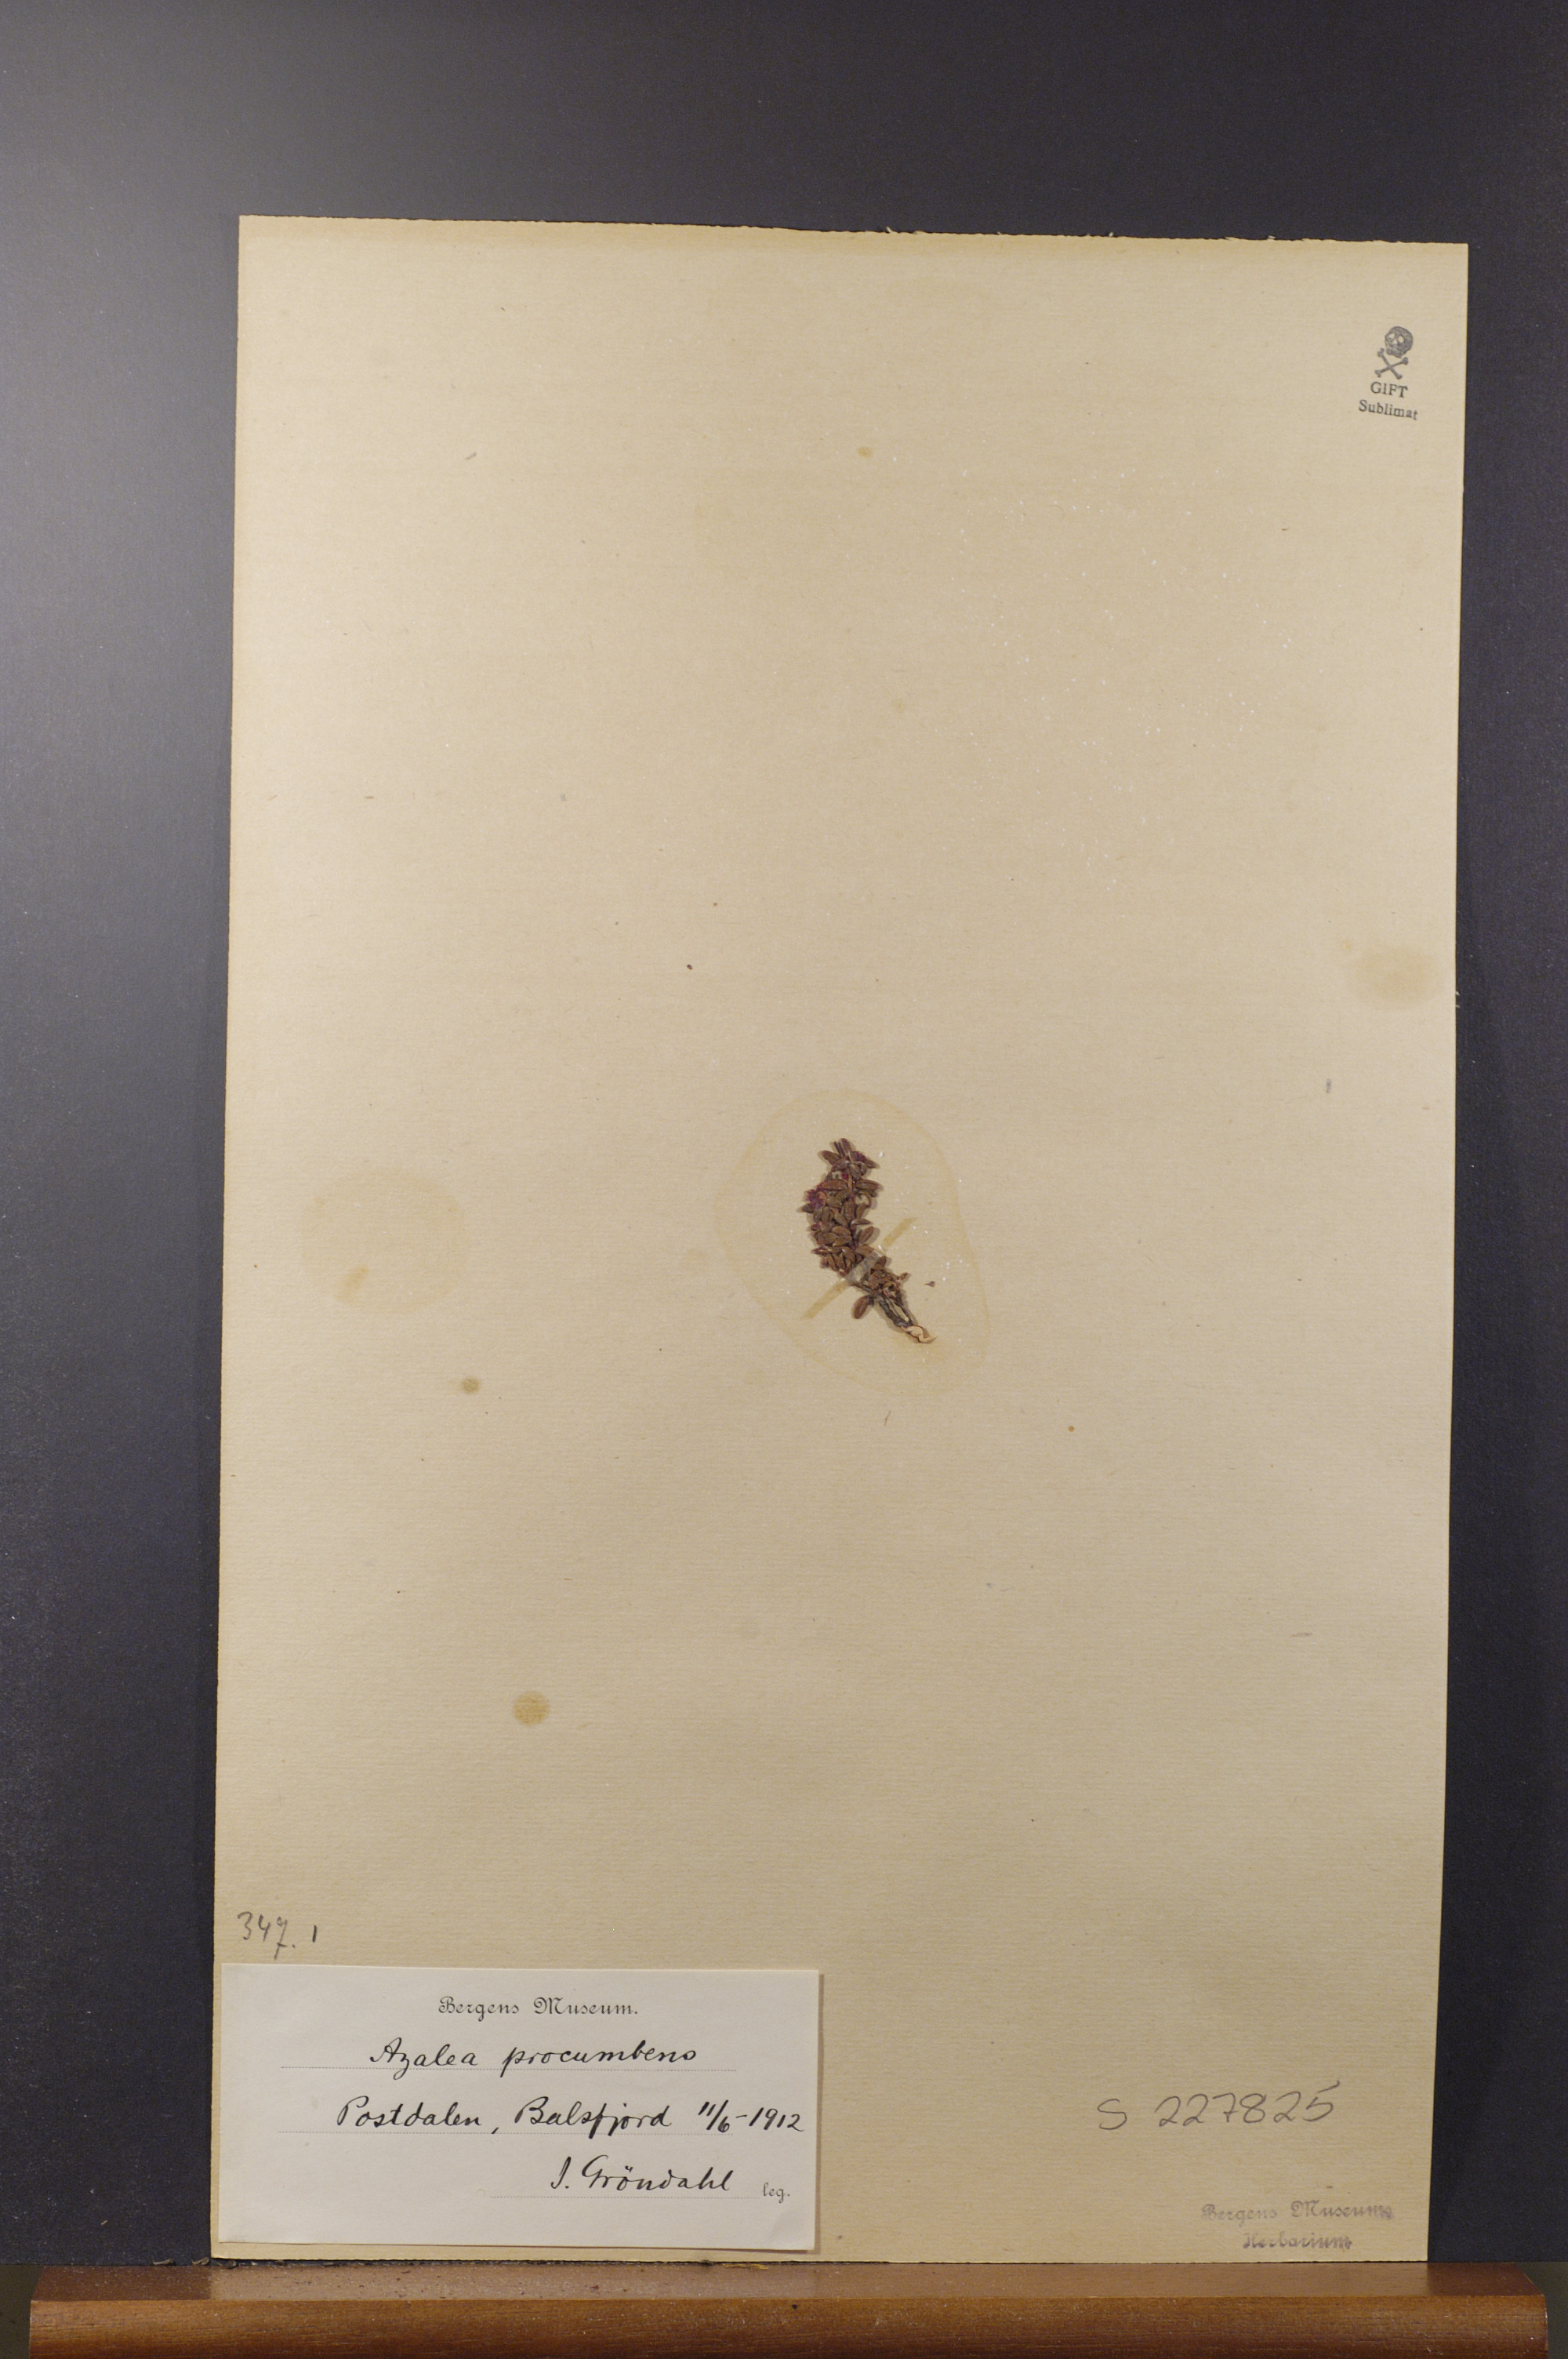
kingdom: Plantae
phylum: Tracheophyta
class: Magnoliopsida
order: Ericales
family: Ericaceae
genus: Kalmia
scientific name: Kalmia procumbens
